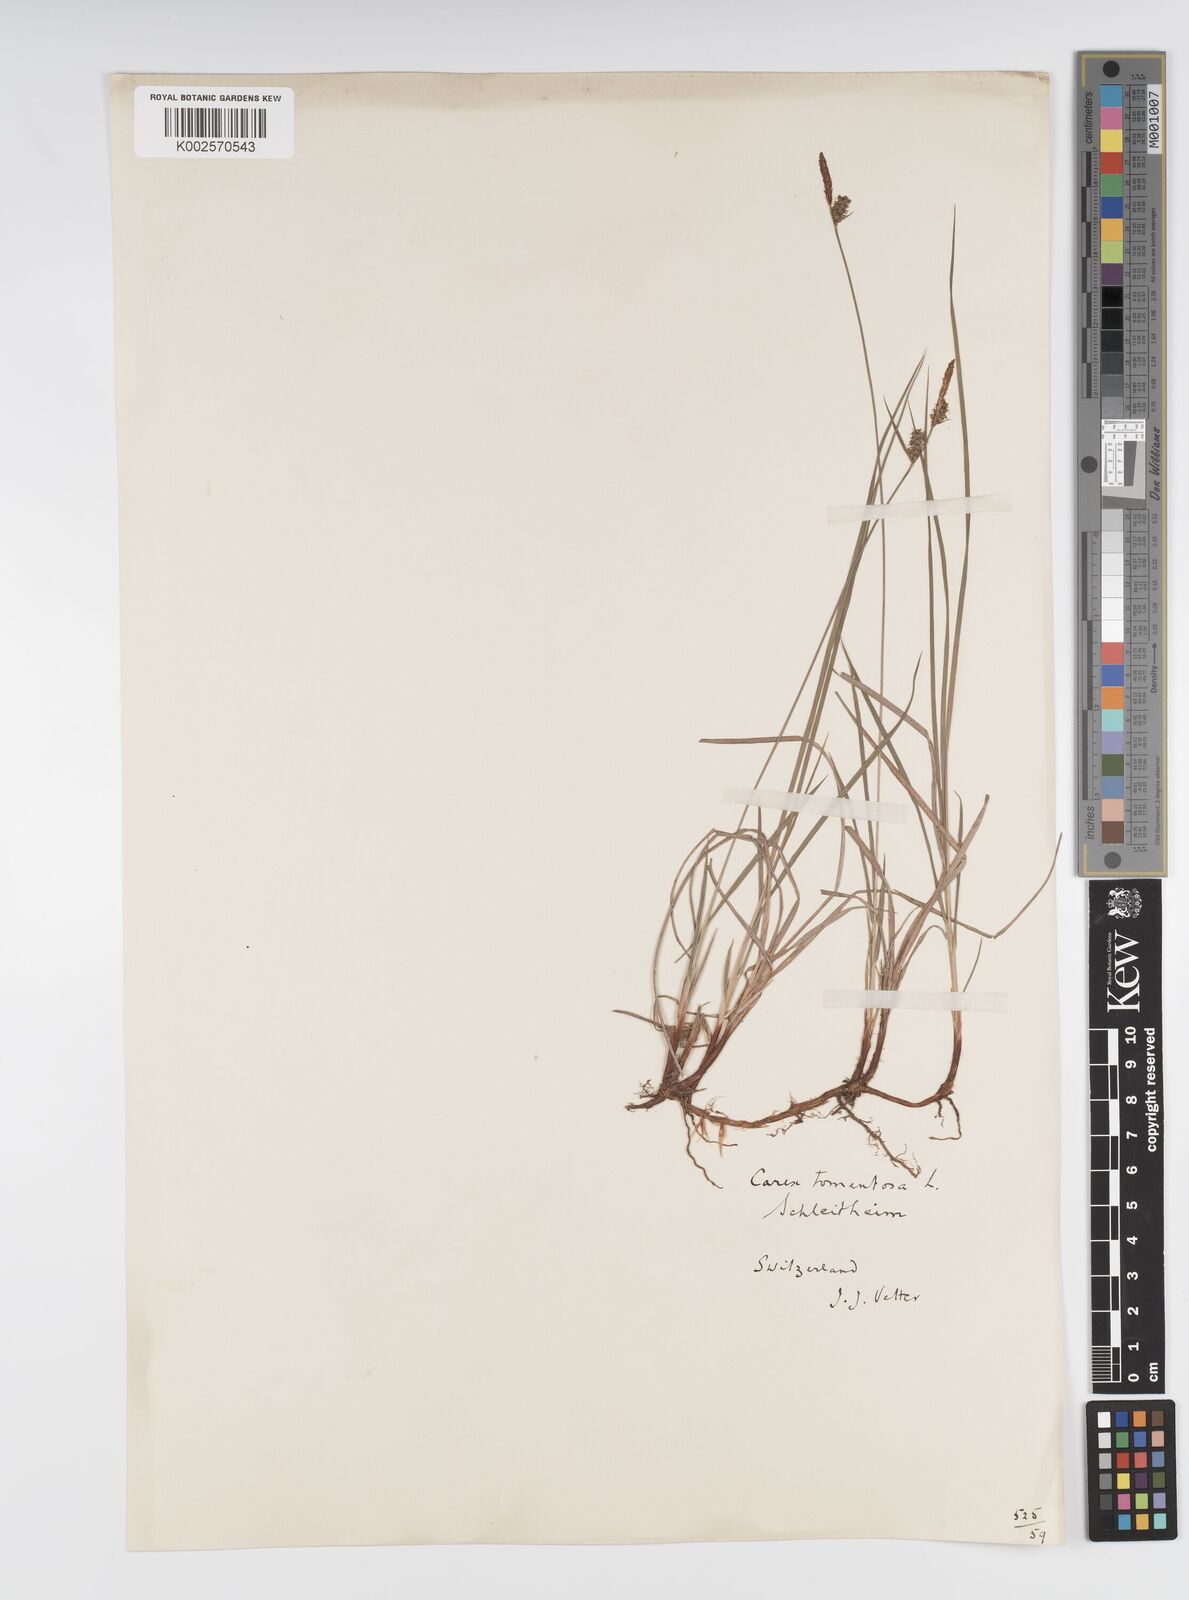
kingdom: Plantae
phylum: Tracheophyta
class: Liliopsida
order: Poales
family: Cyperaceae
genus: Carex
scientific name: Carex montana
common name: Soft-leaved sedge
